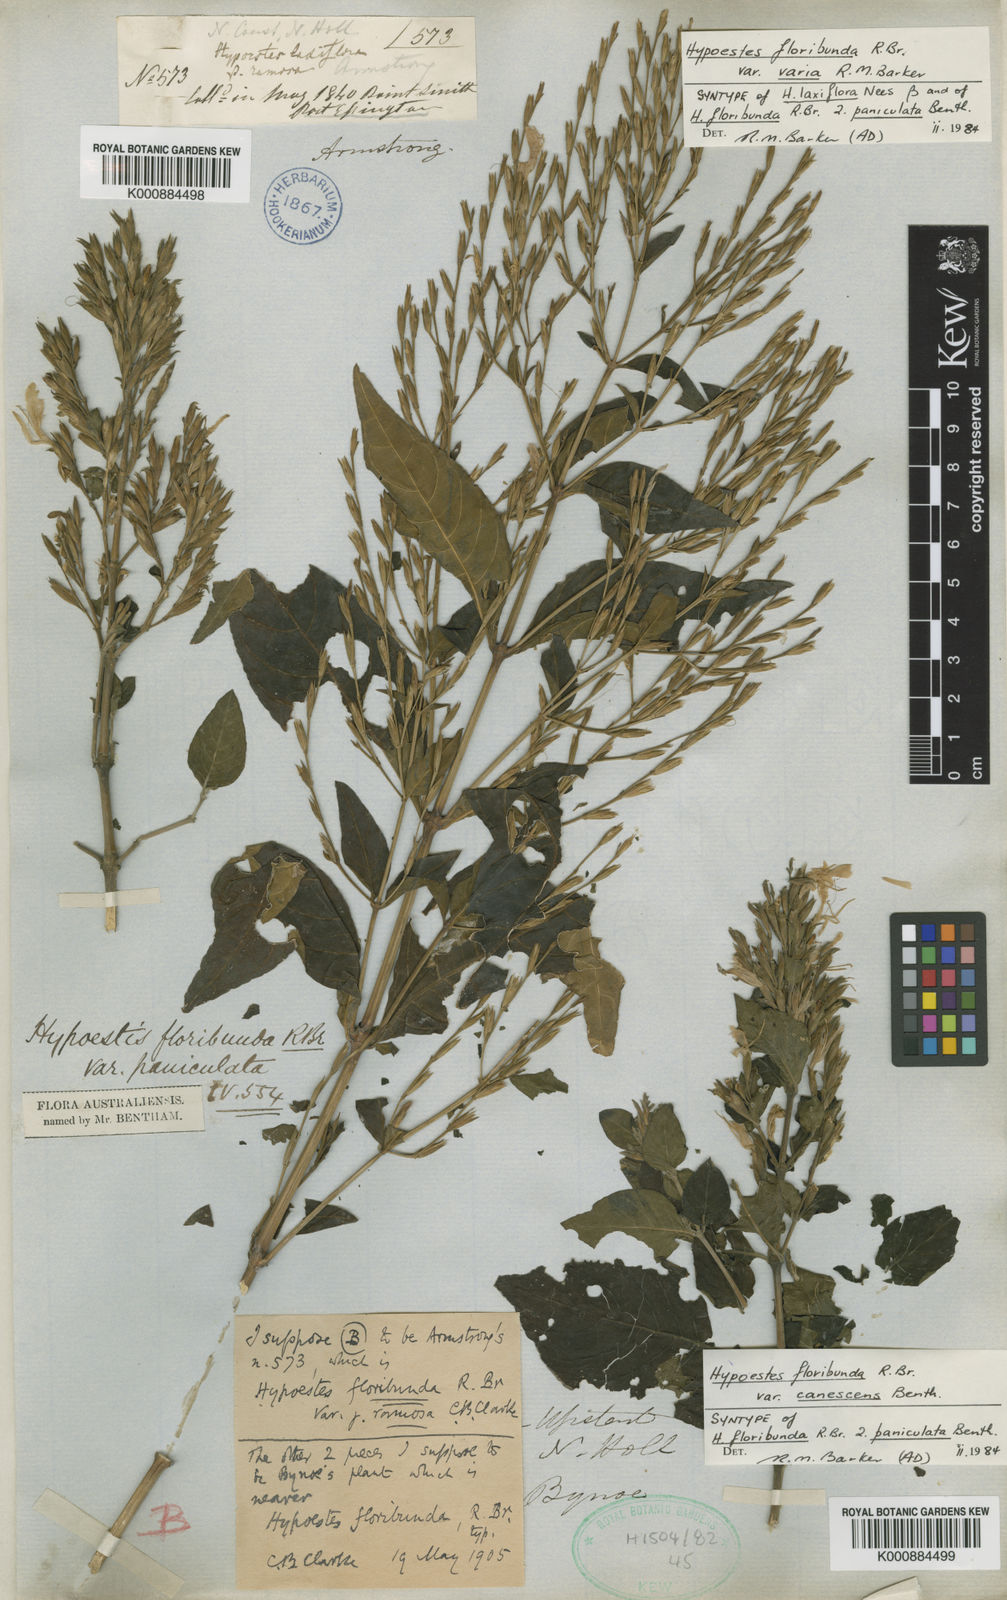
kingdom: Plantae
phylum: Tracheophyta
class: Magnoliopsida
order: Lamiales
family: Acanthaceae
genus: Hypoestes
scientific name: Hypoestes floribunda
